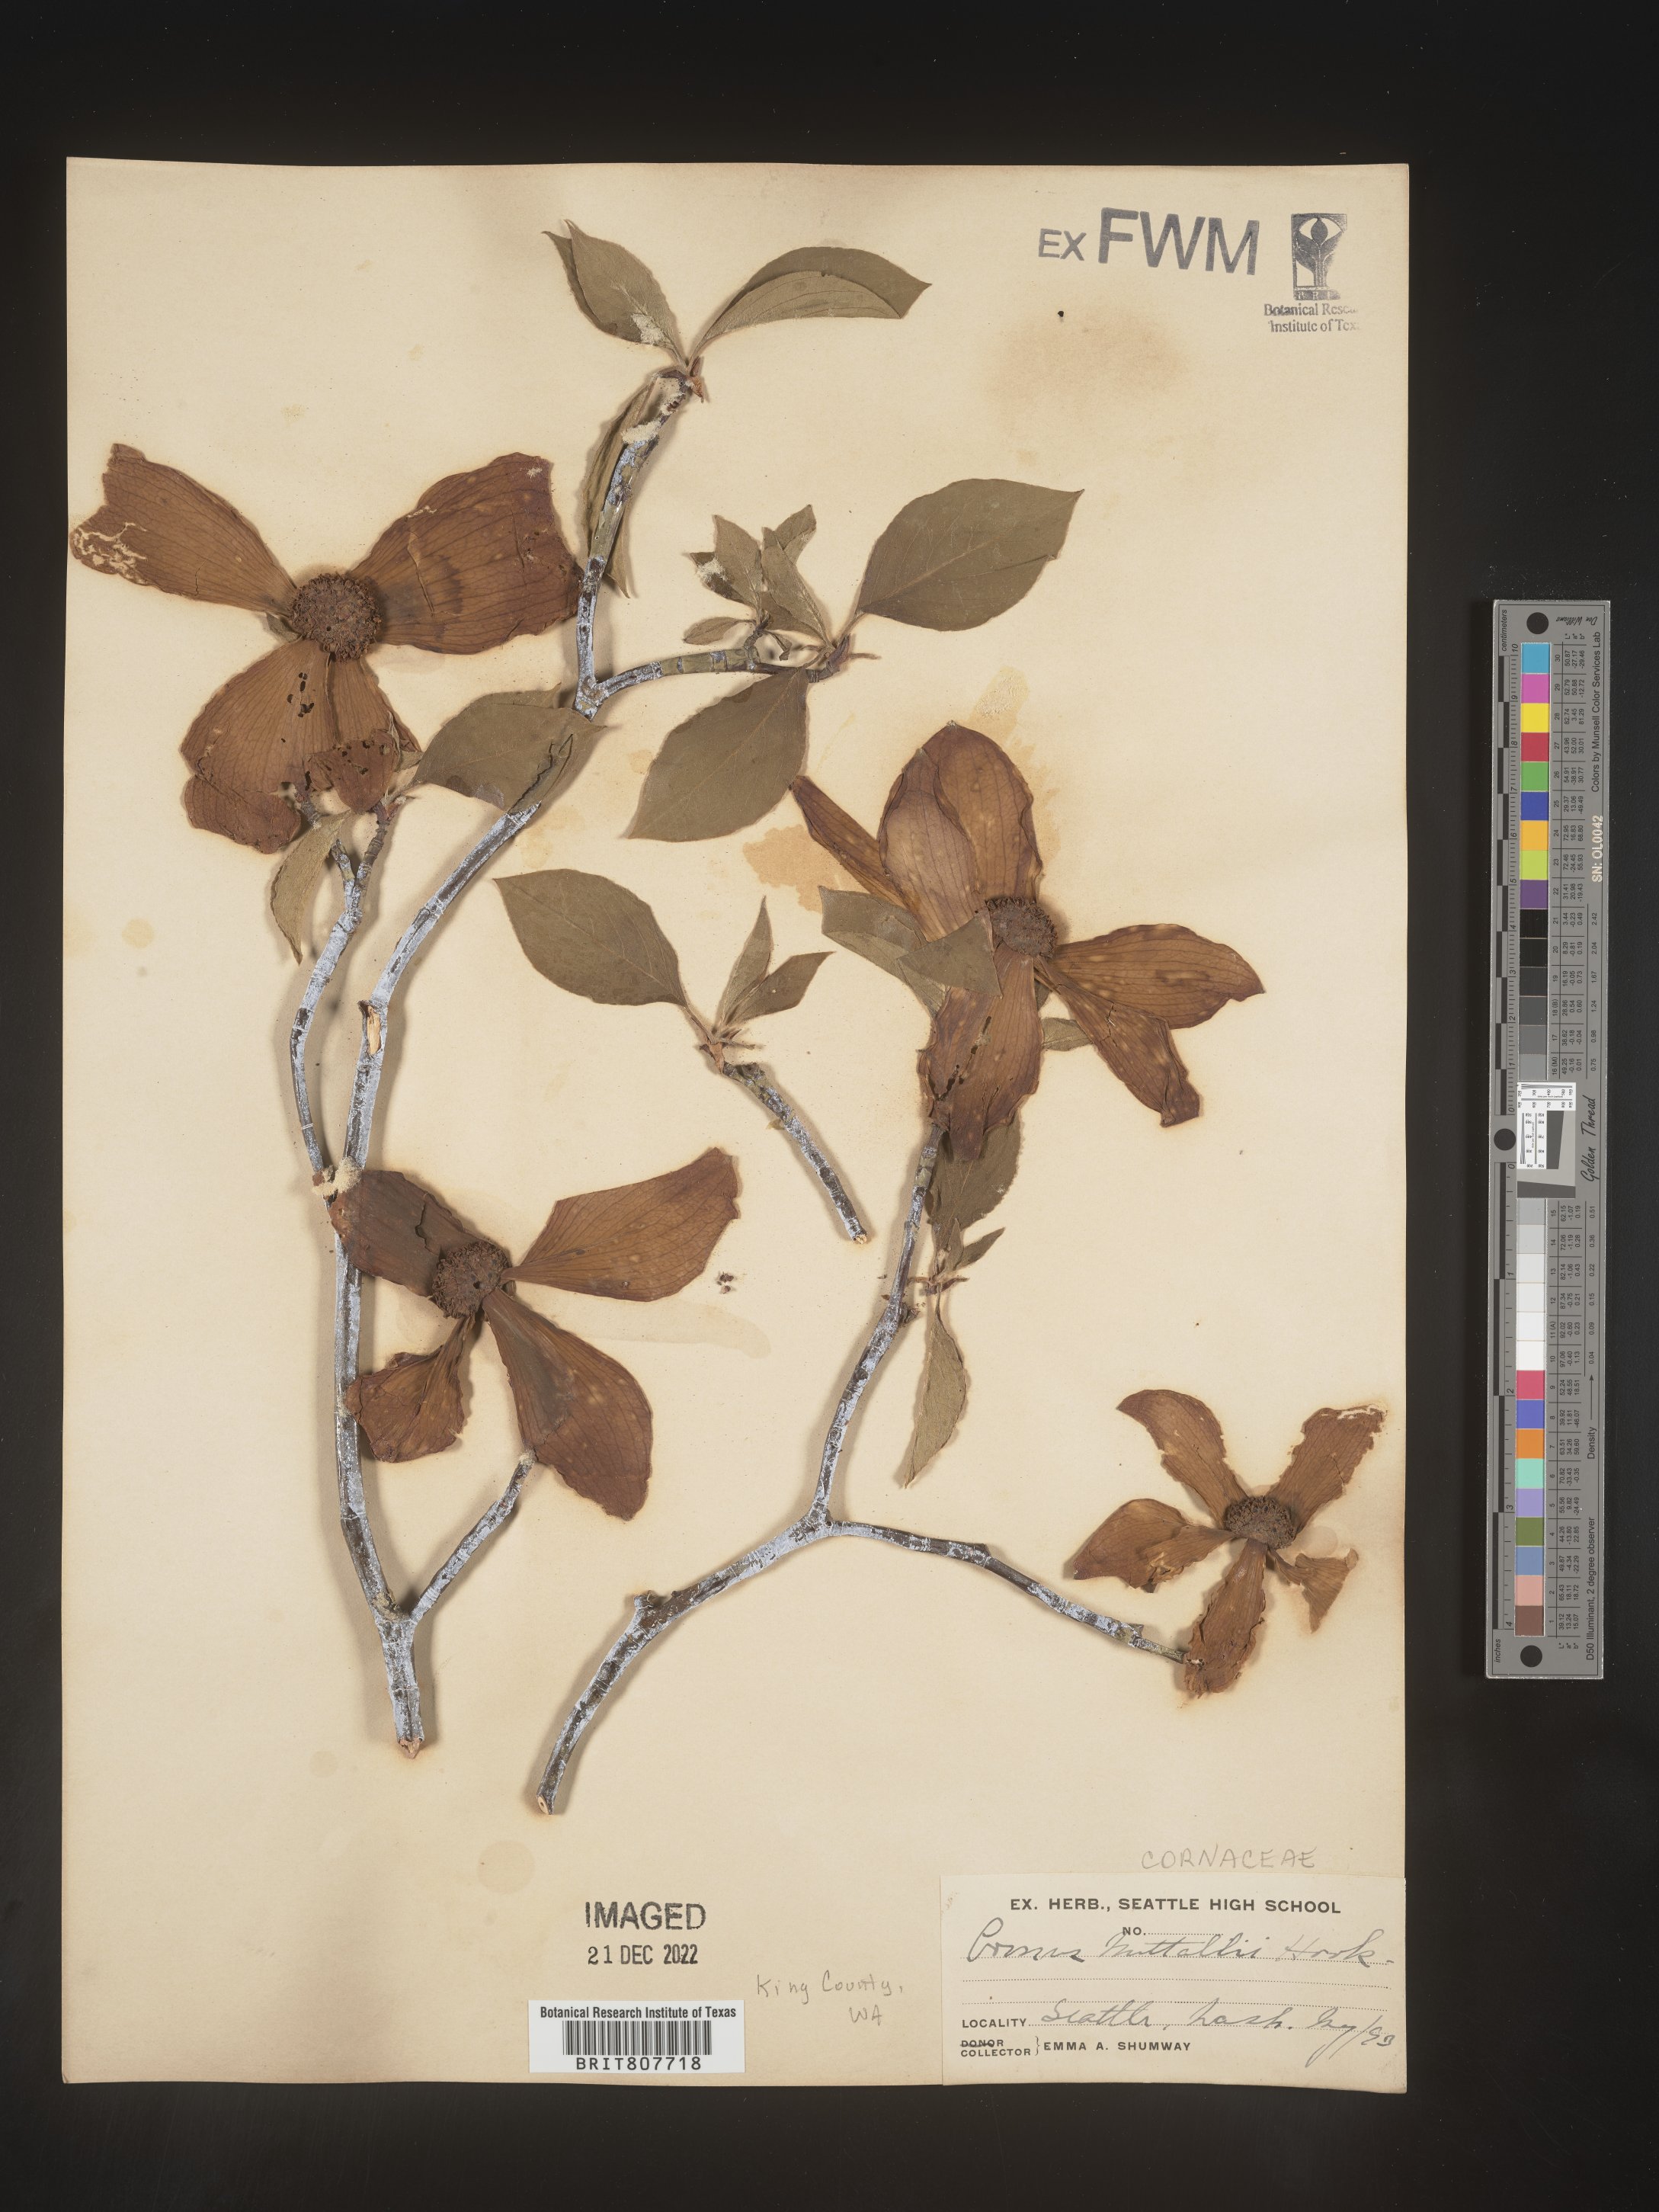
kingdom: Plantae
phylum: Tracheophyta
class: Magnoliopsida
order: Cornales
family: Cornaceae
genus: Cornus
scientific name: Cornus nuttallii
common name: Pacific dogwood
